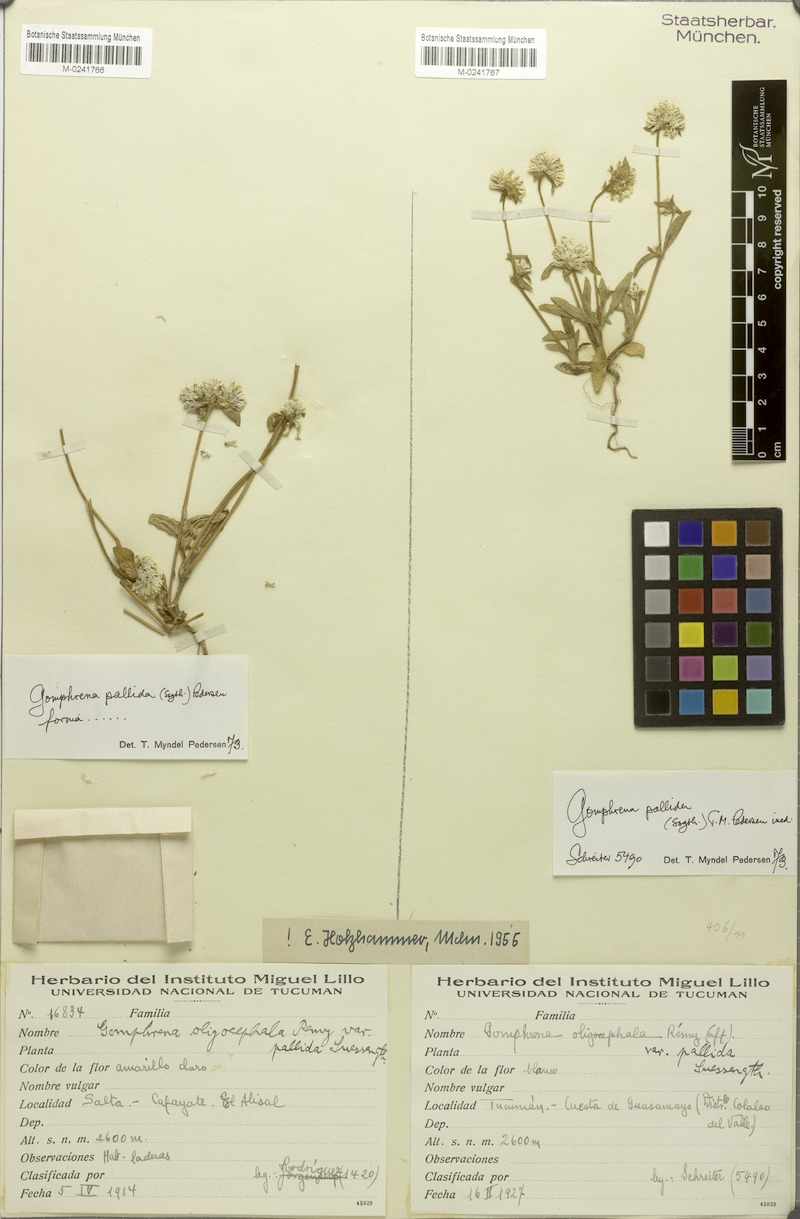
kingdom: Plantae
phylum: Tracheophyta
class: Magnoliopsida
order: Caryophyllales
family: Amaranthaceae
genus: Gomphrena
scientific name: Gomphrena pallida
